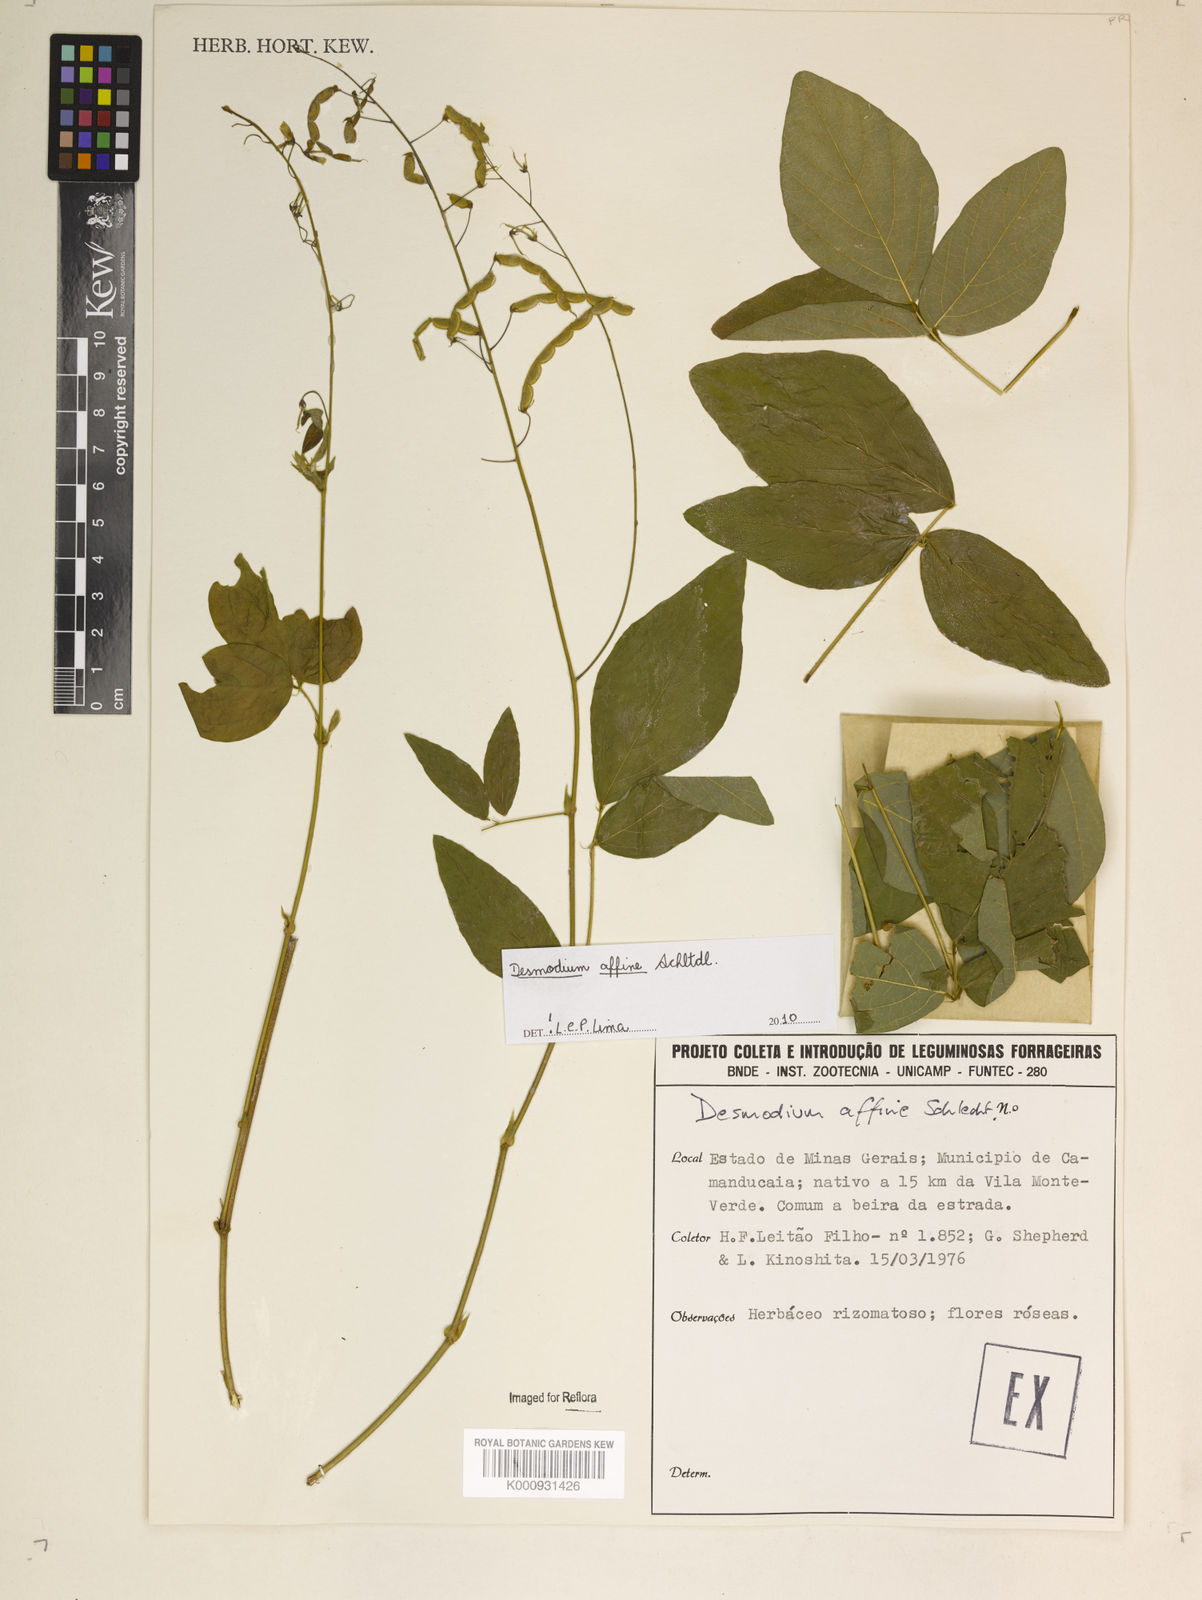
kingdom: Plantae
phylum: Tracheophyta
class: Magnoliopsida
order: Fabales
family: Fabaceae
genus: Desmodium
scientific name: Desmodium affine
